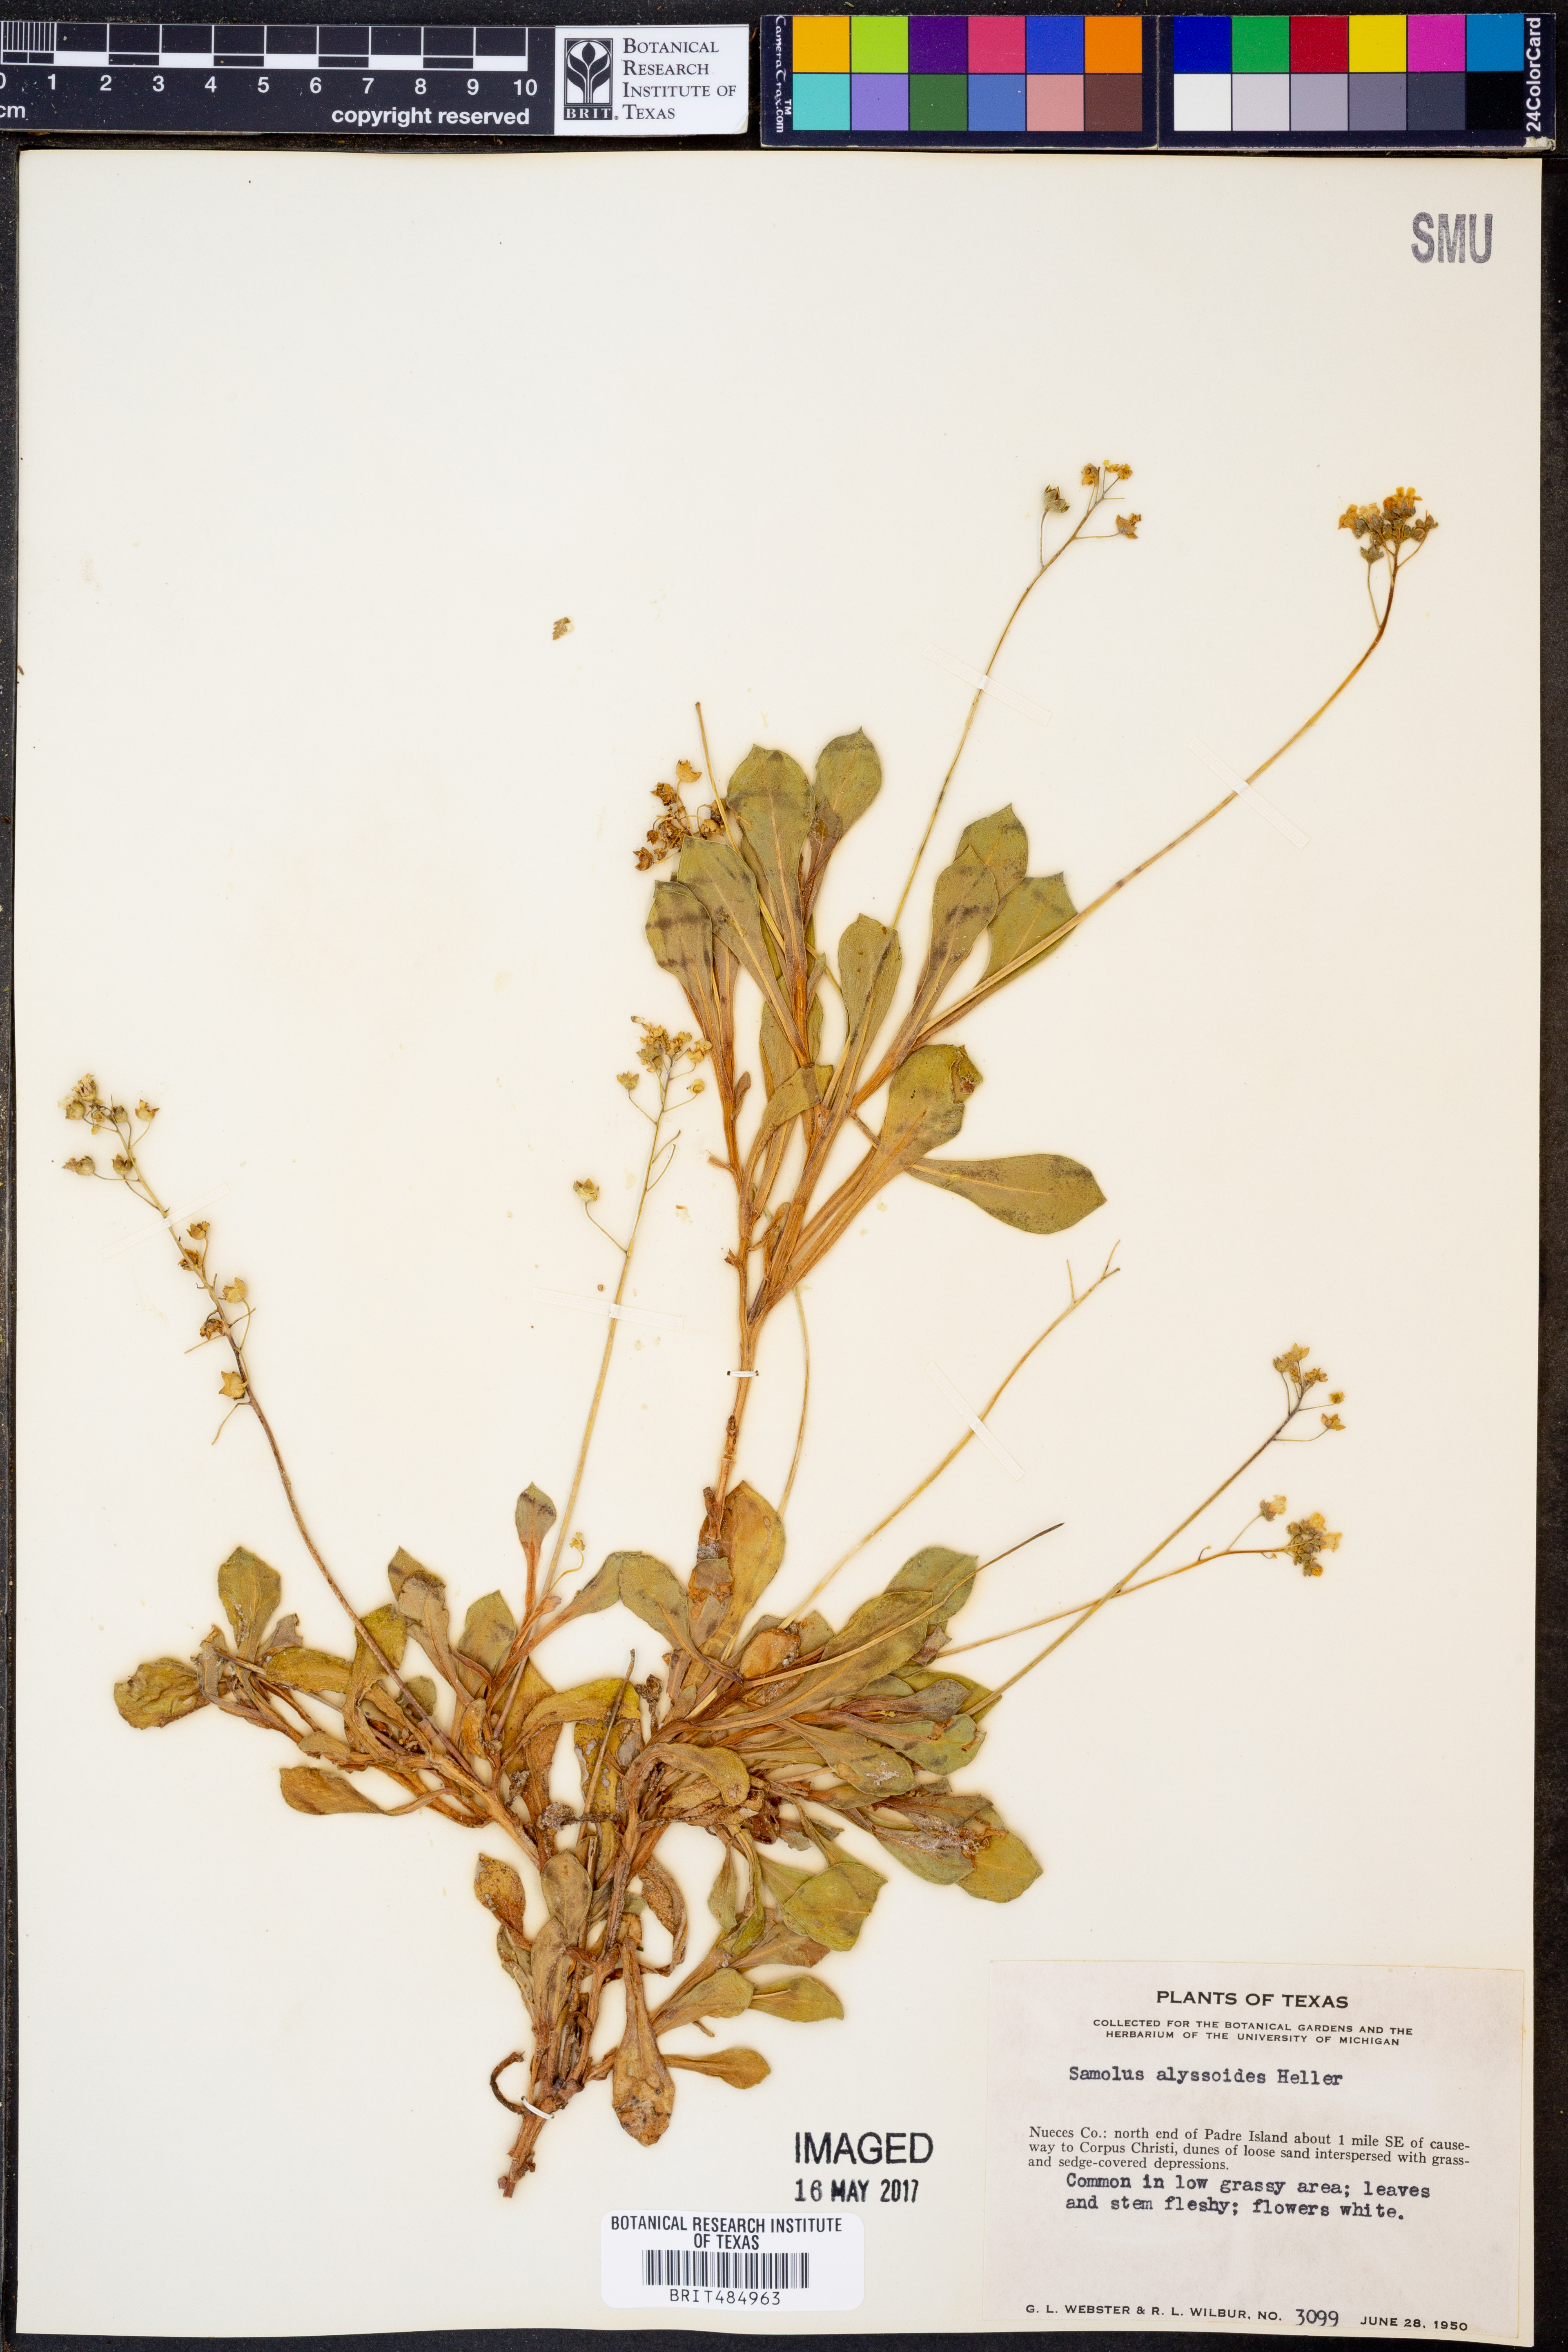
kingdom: Plantae
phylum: Tracheophyta
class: Magnoliopsida
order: Ericales
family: Primulaceae
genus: Samolus
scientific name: Samolus ebracteatus
